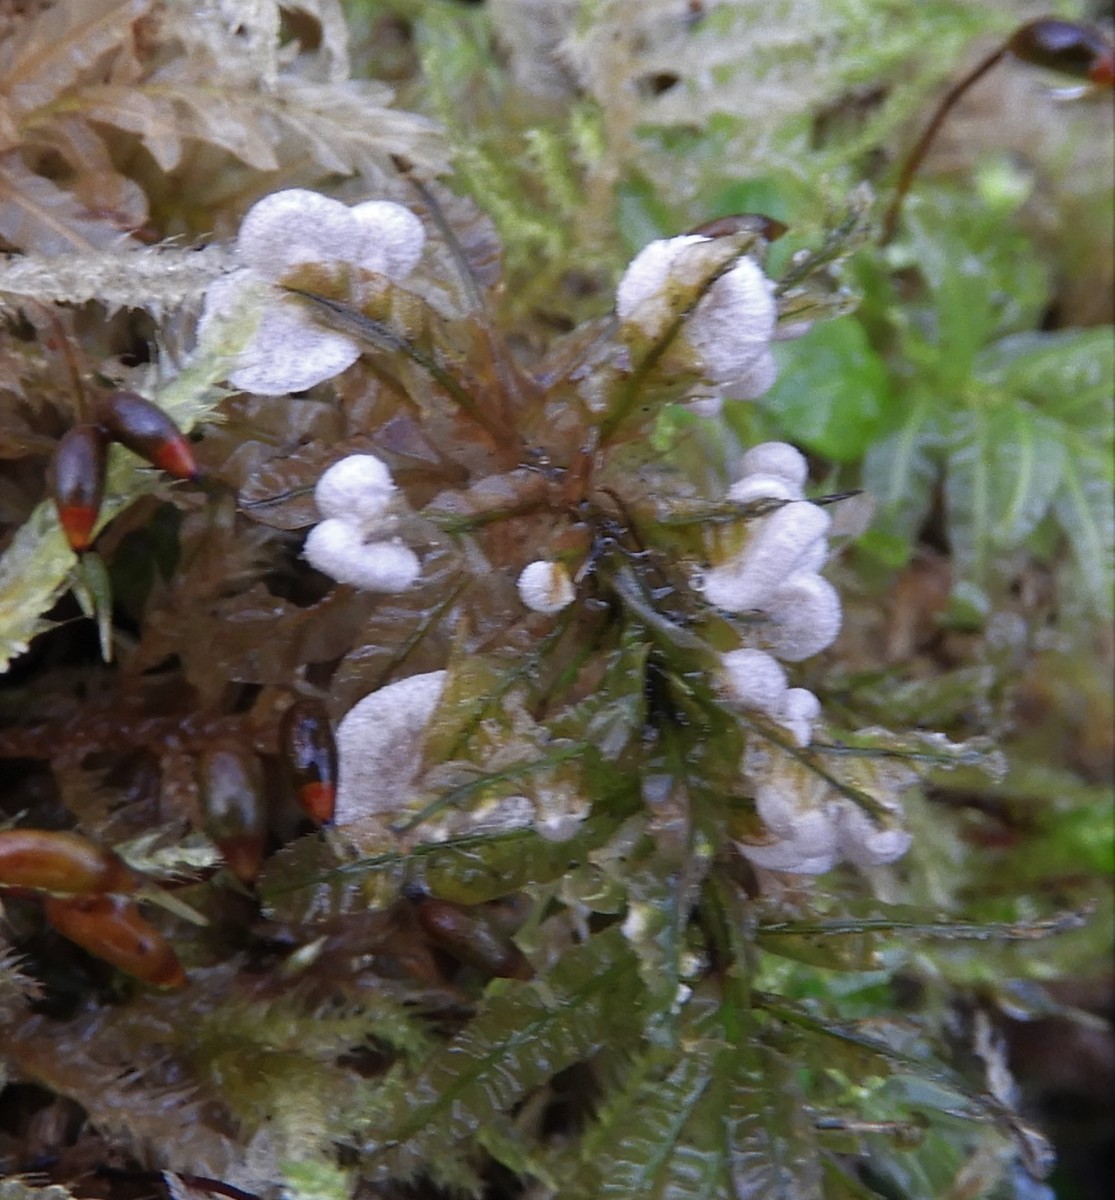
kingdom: Fungi
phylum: Basidiomycota
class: Agaricomycetes
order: Agaricales
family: Hygrophoraceae
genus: Arrhenia
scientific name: Arrhenia retiruga
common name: lille fontænehat
